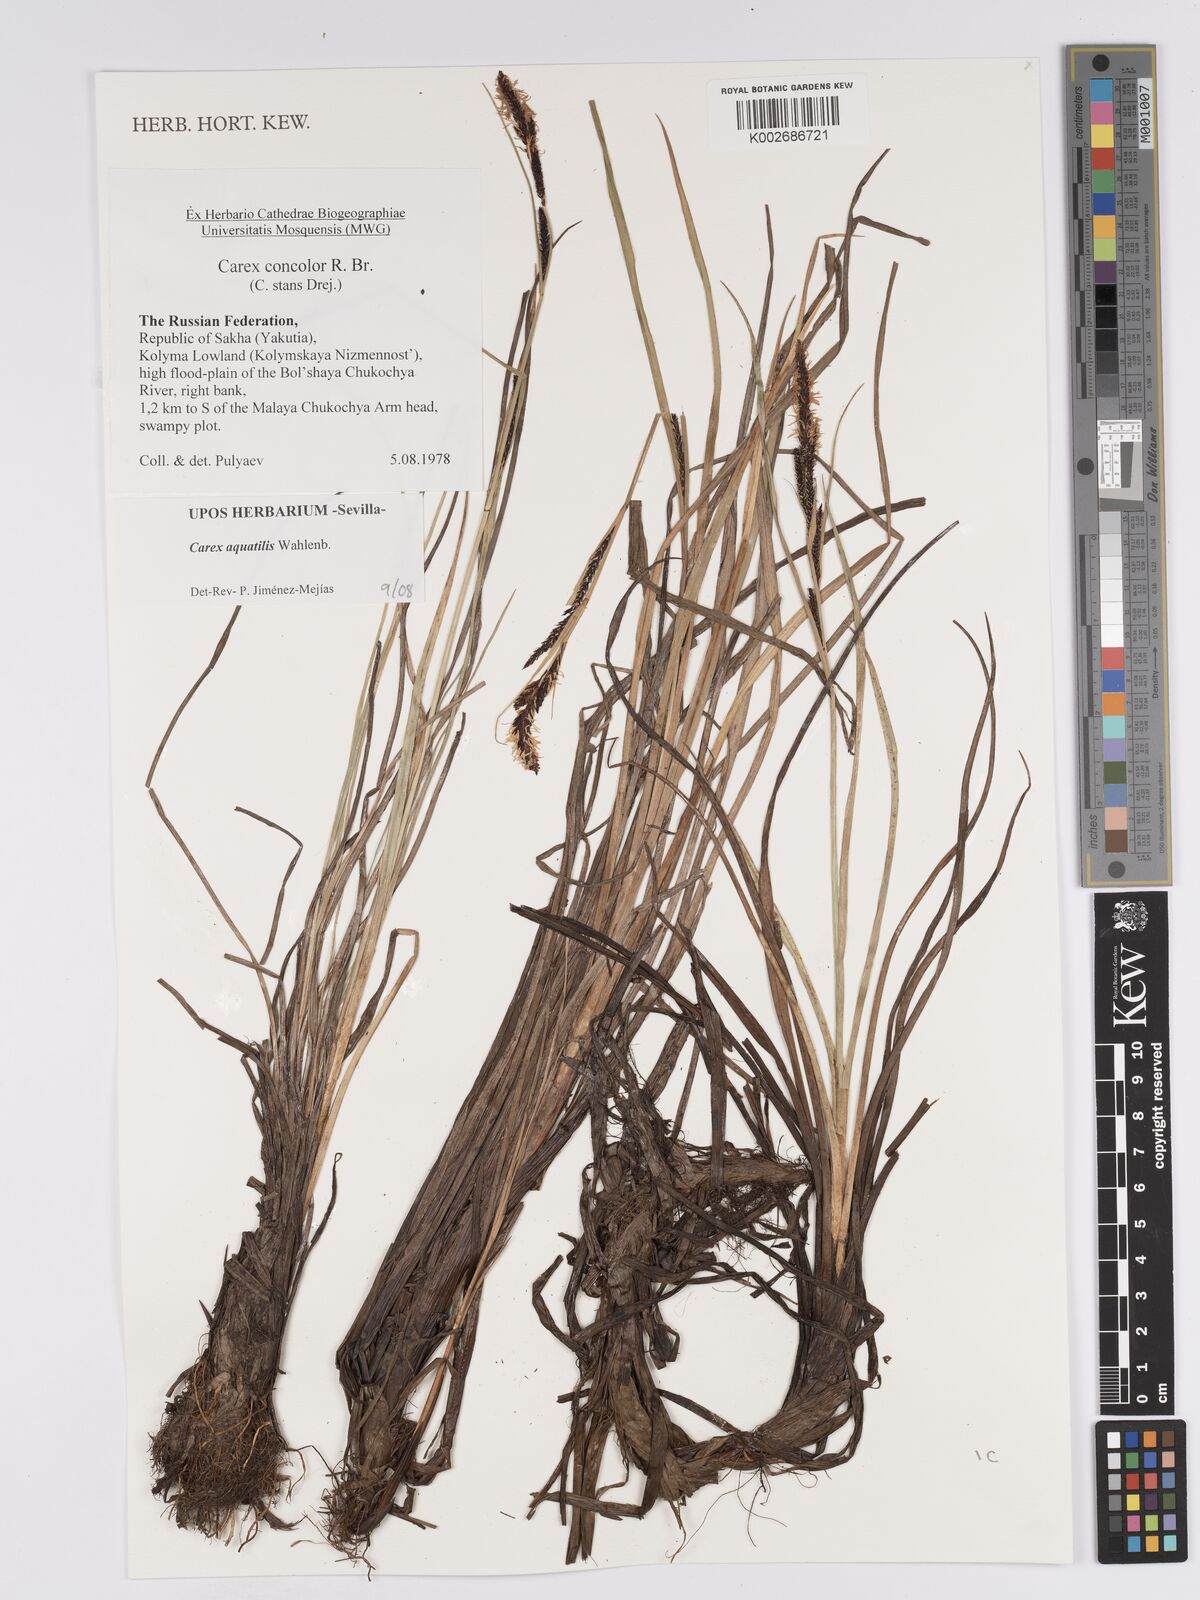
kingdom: Plantae
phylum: Tracheophyta
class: Liliopsida
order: Poales
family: Cyperaceae
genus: Carex
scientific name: Carex aquatilis
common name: Water sedge
